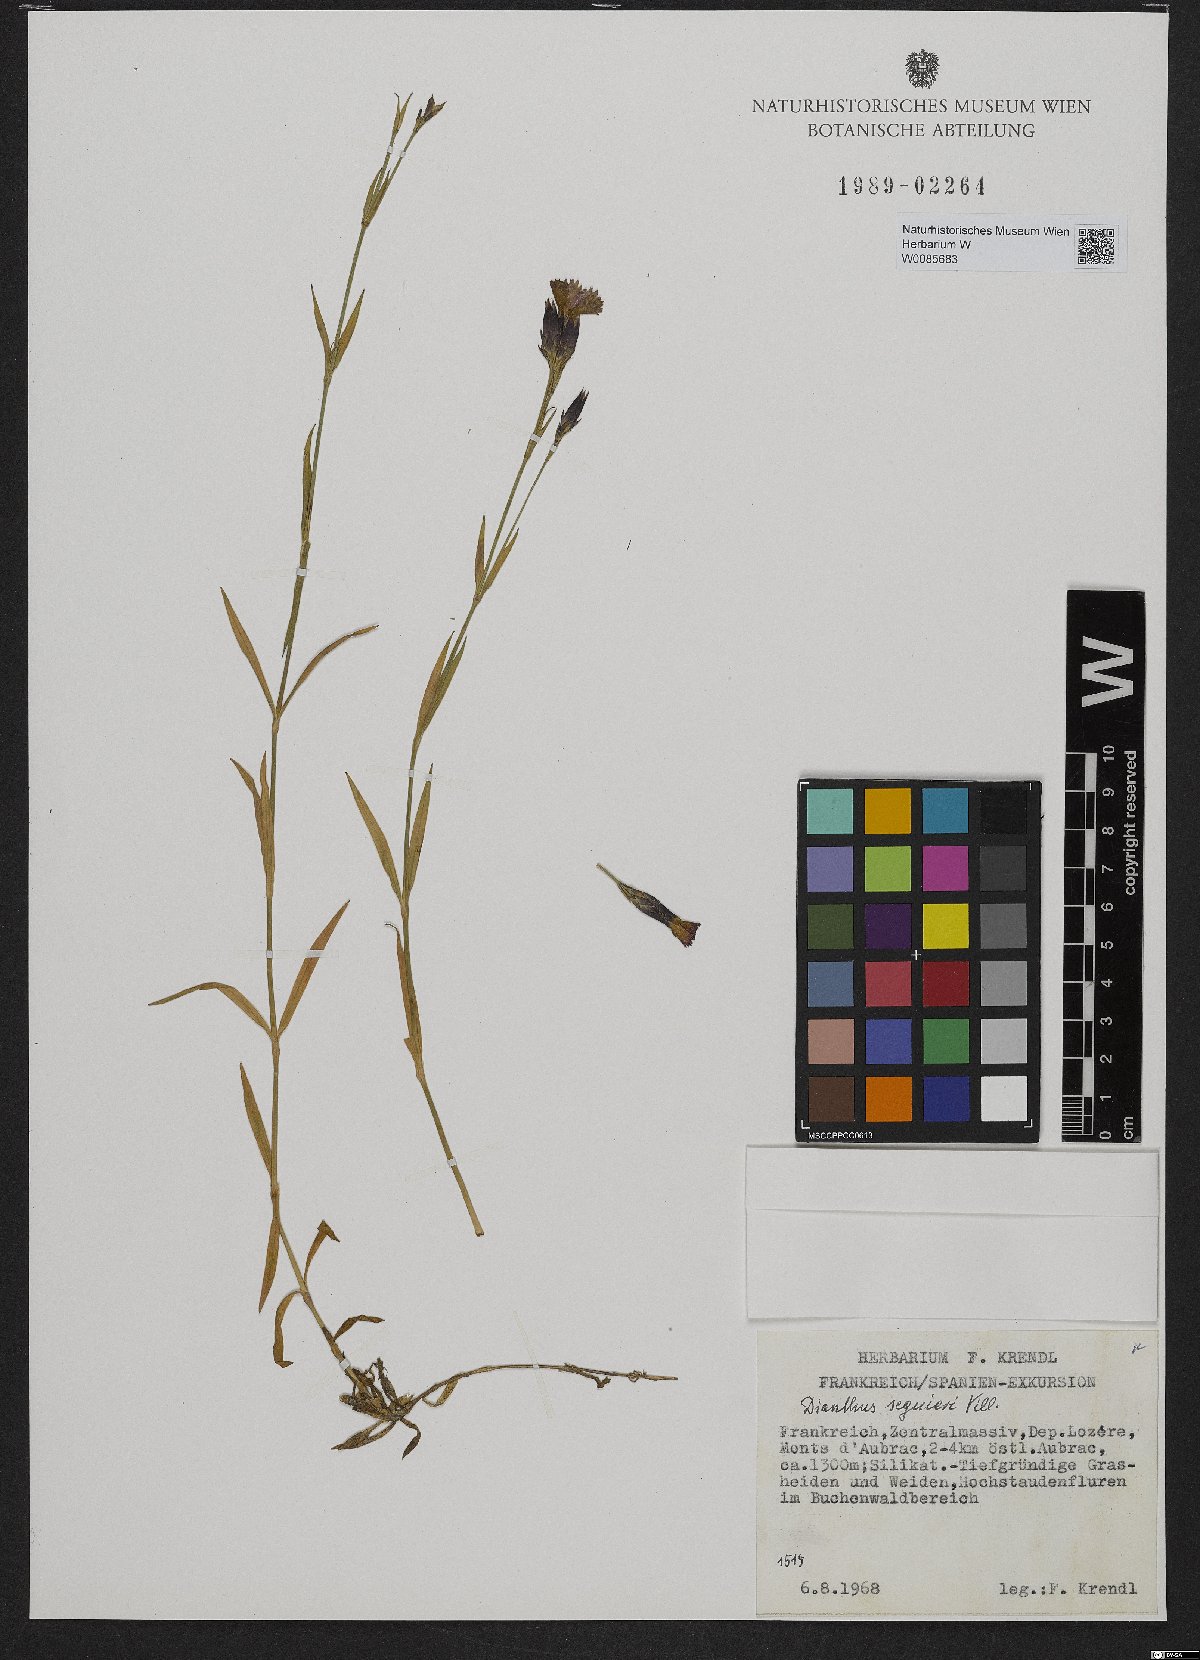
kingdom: Plantae
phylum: Tracheophyta
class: Magnoliopsida
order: Caryophyllales
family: Caryophyllaceae
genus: Dianthus
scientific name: Dianthus seguieri
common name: Ragged pink
